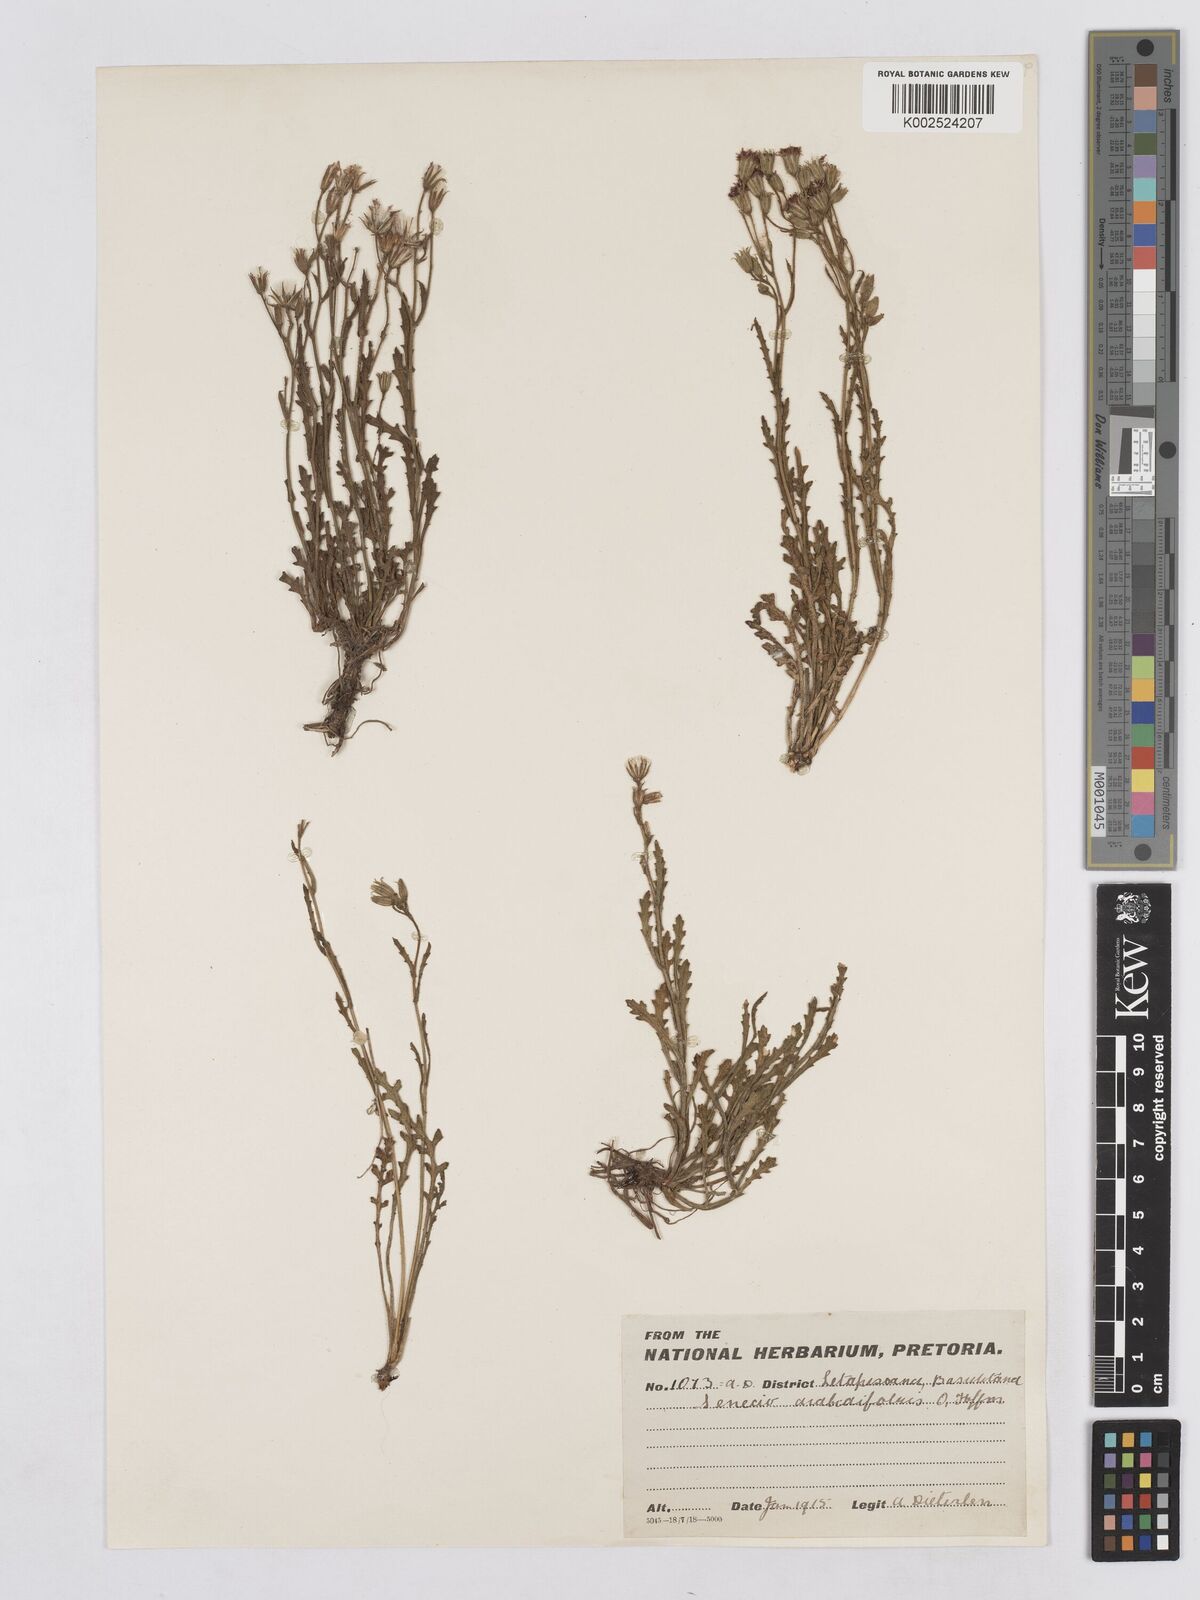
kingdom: Plantae
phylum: Tracheophyta
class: Magnoliopsida
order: Asterales
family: Asteraceae
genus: Senecio
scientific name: Senecio arabidifolius
